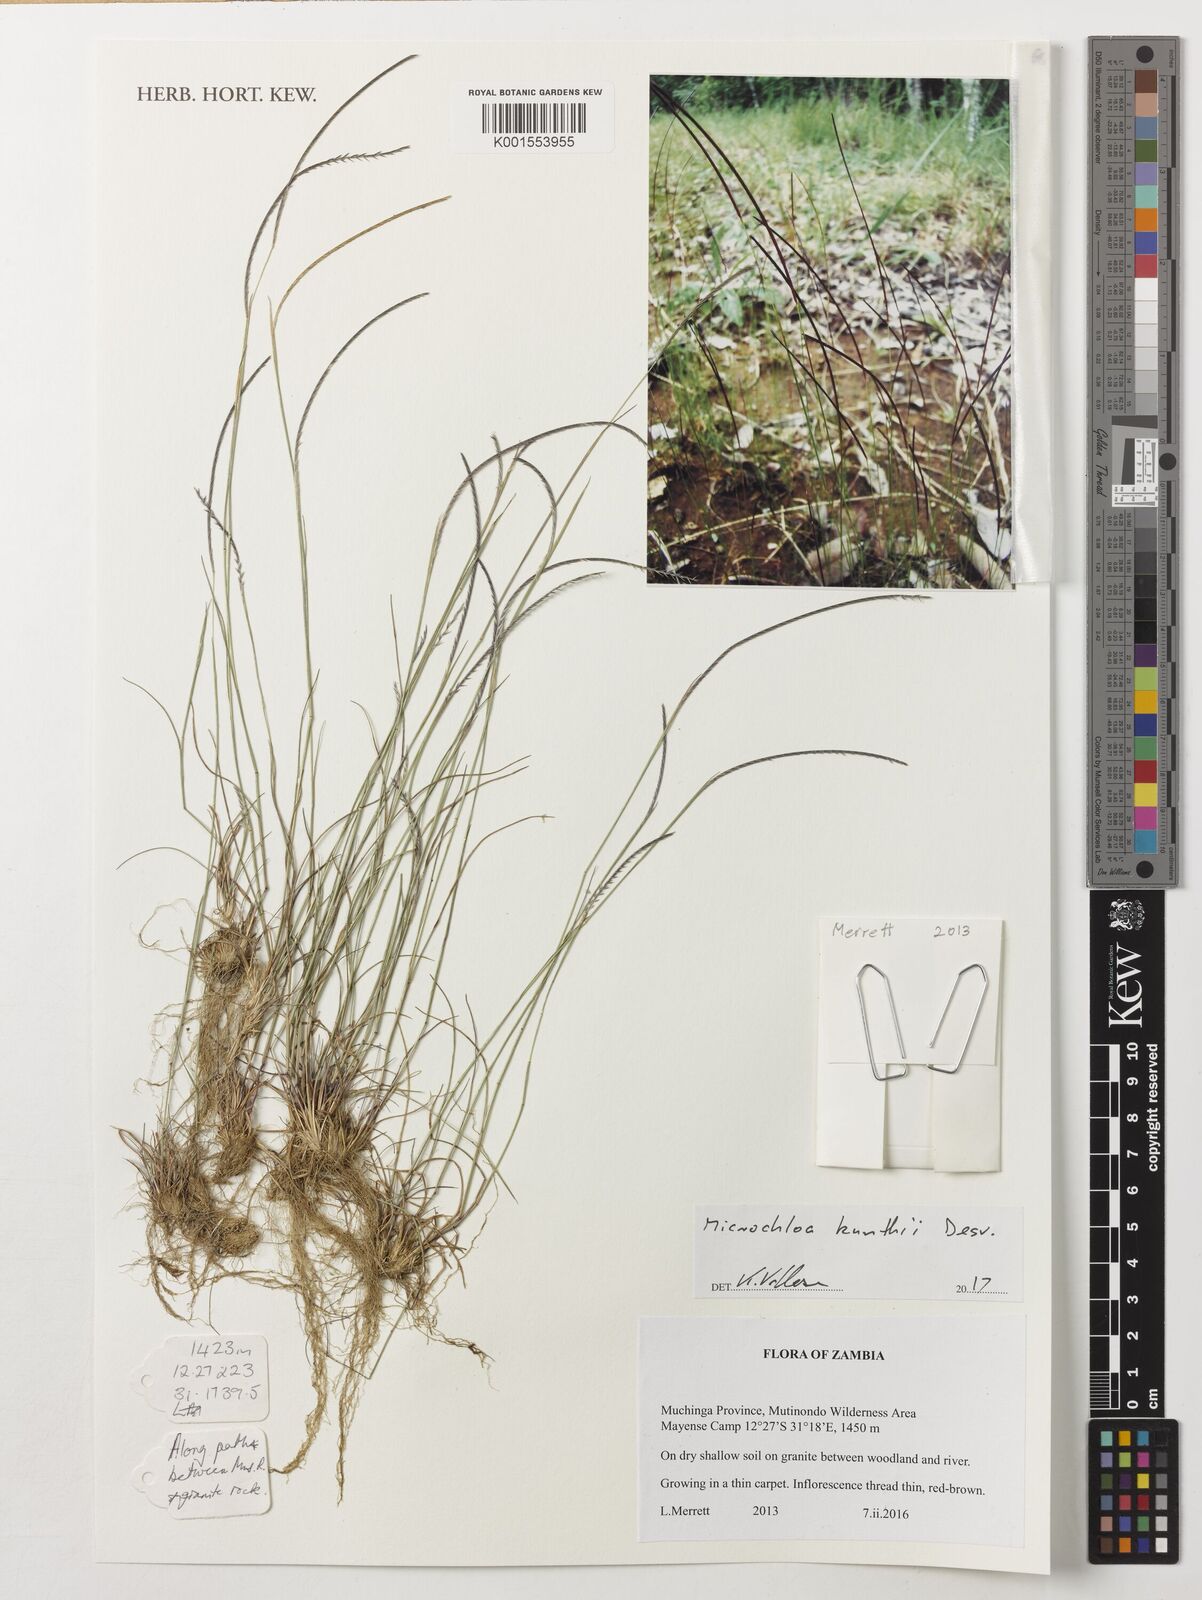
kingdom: Plantae
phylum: Tracheophyta
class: Liliopsida
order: Poales
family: Poaceae
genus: Microchloa
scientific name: Microchloa kunthii
